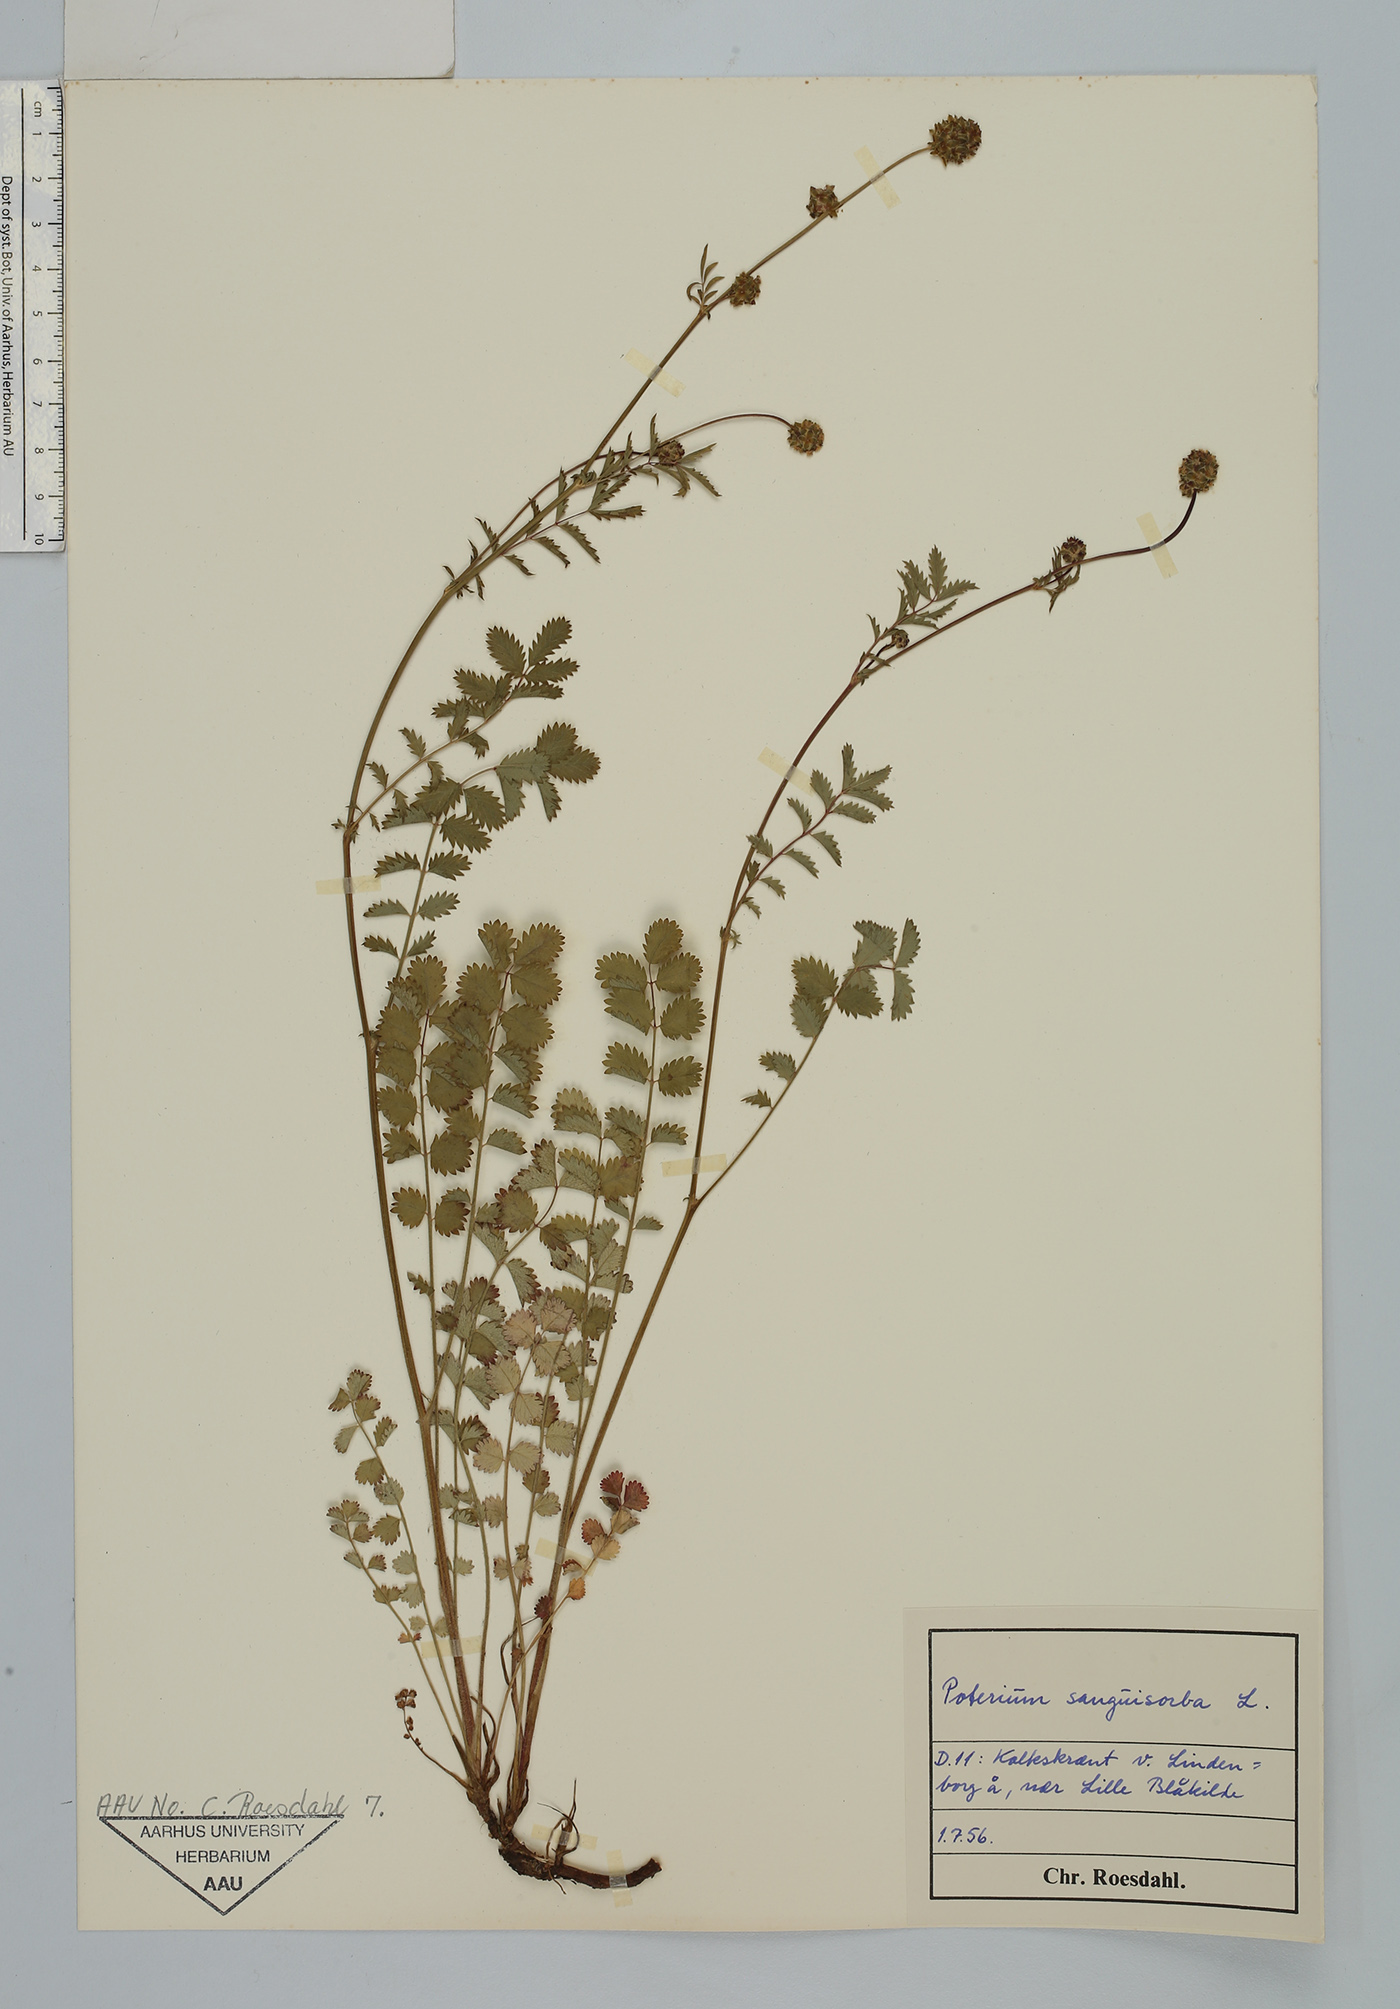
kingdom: Plantae
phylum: Tracheophyta
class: Magnoliopsida
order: Rosales
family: Rosaceae
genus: Poterium
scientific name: Poterium sanguisorba
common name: Salad burnet
